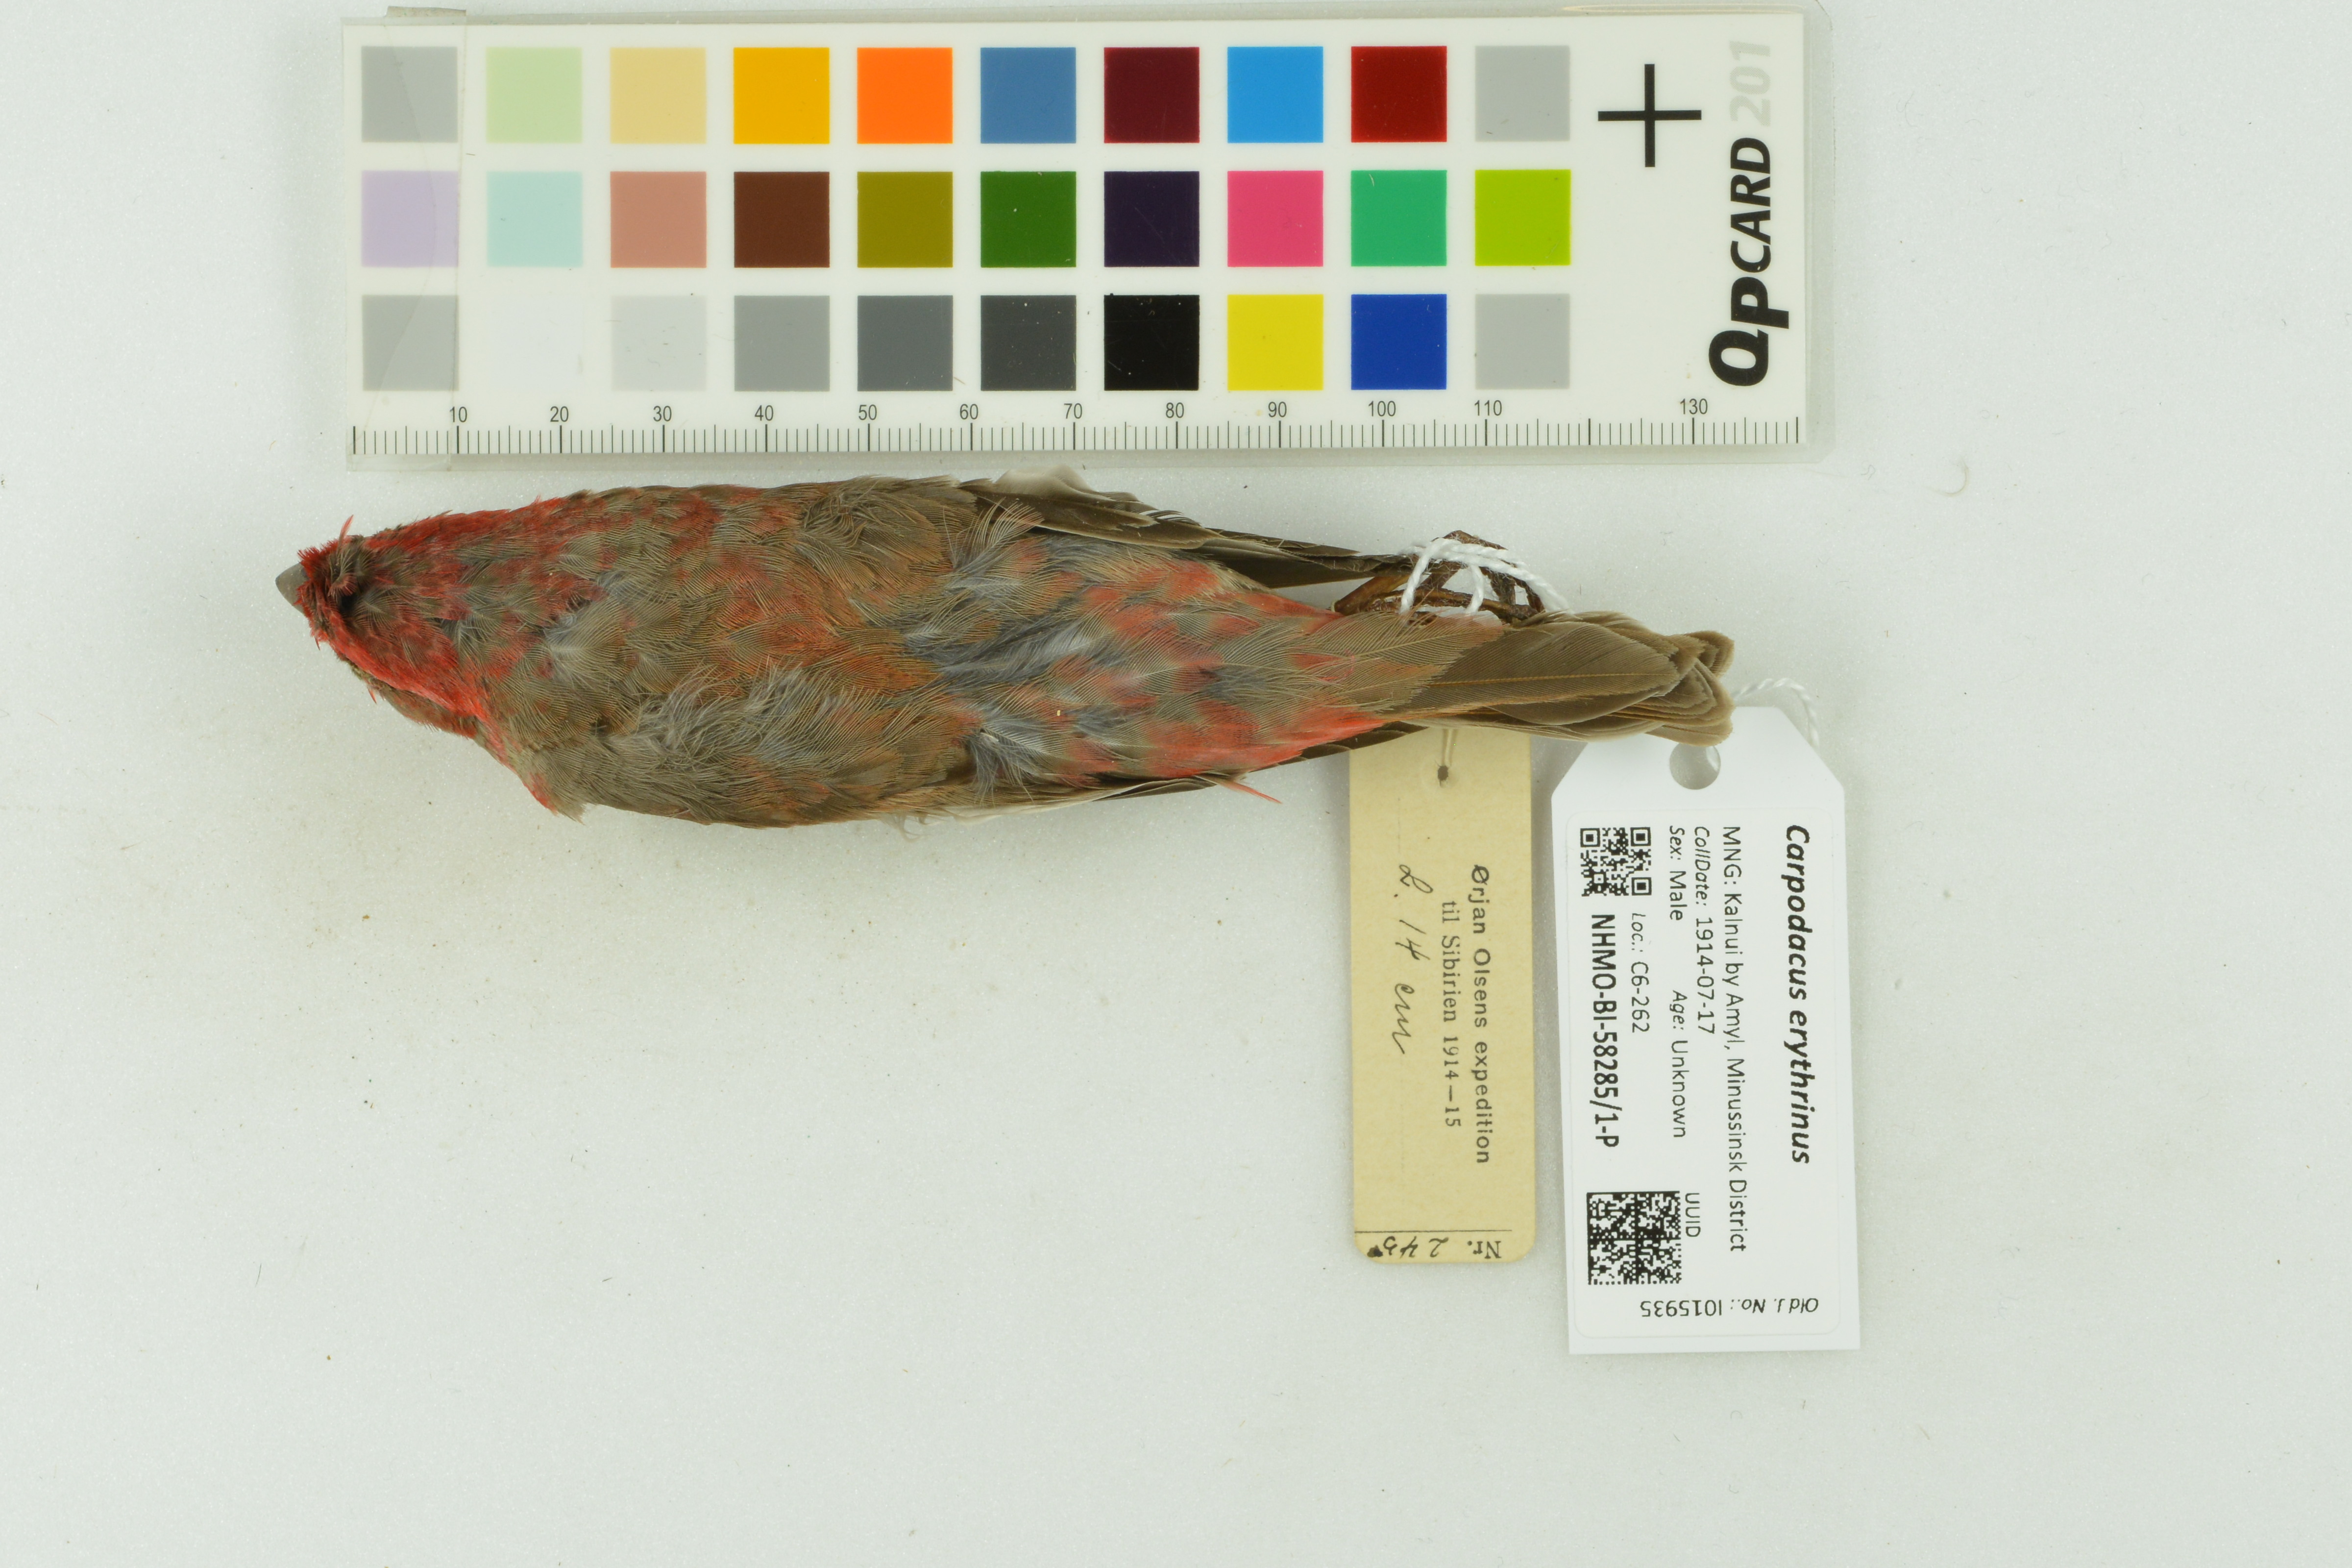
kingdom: Animalia
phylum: Chordata
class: Aves
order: Passeriformes
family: Fringillidae
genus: Carpodacus
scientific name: Carpodacus erythrinus
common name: Common rosefinch
